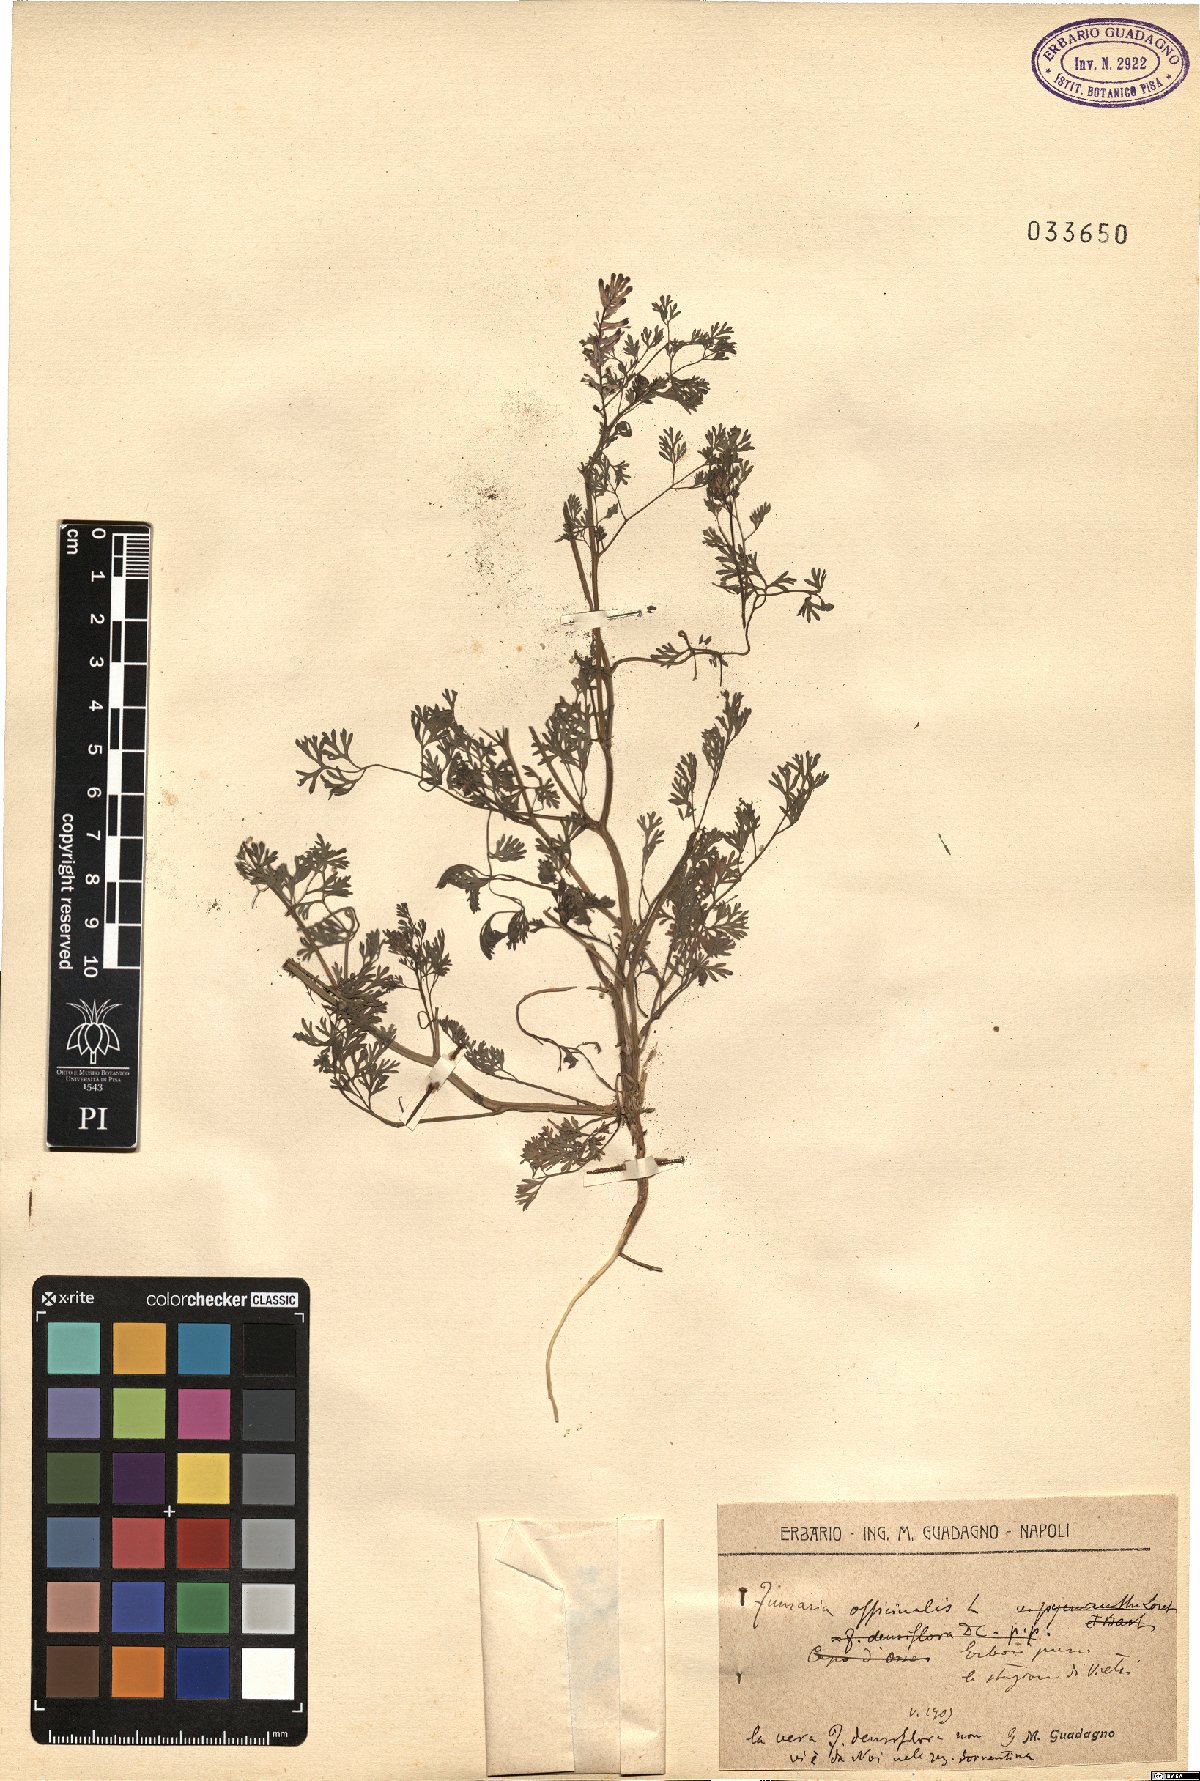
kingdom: Plantae
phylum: Tracheophyta
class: Magnoliopsida
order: Ranunculales
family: Papaveraceae
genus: Fumaria
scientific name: Fumaria officinalis
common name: Common fumitory
